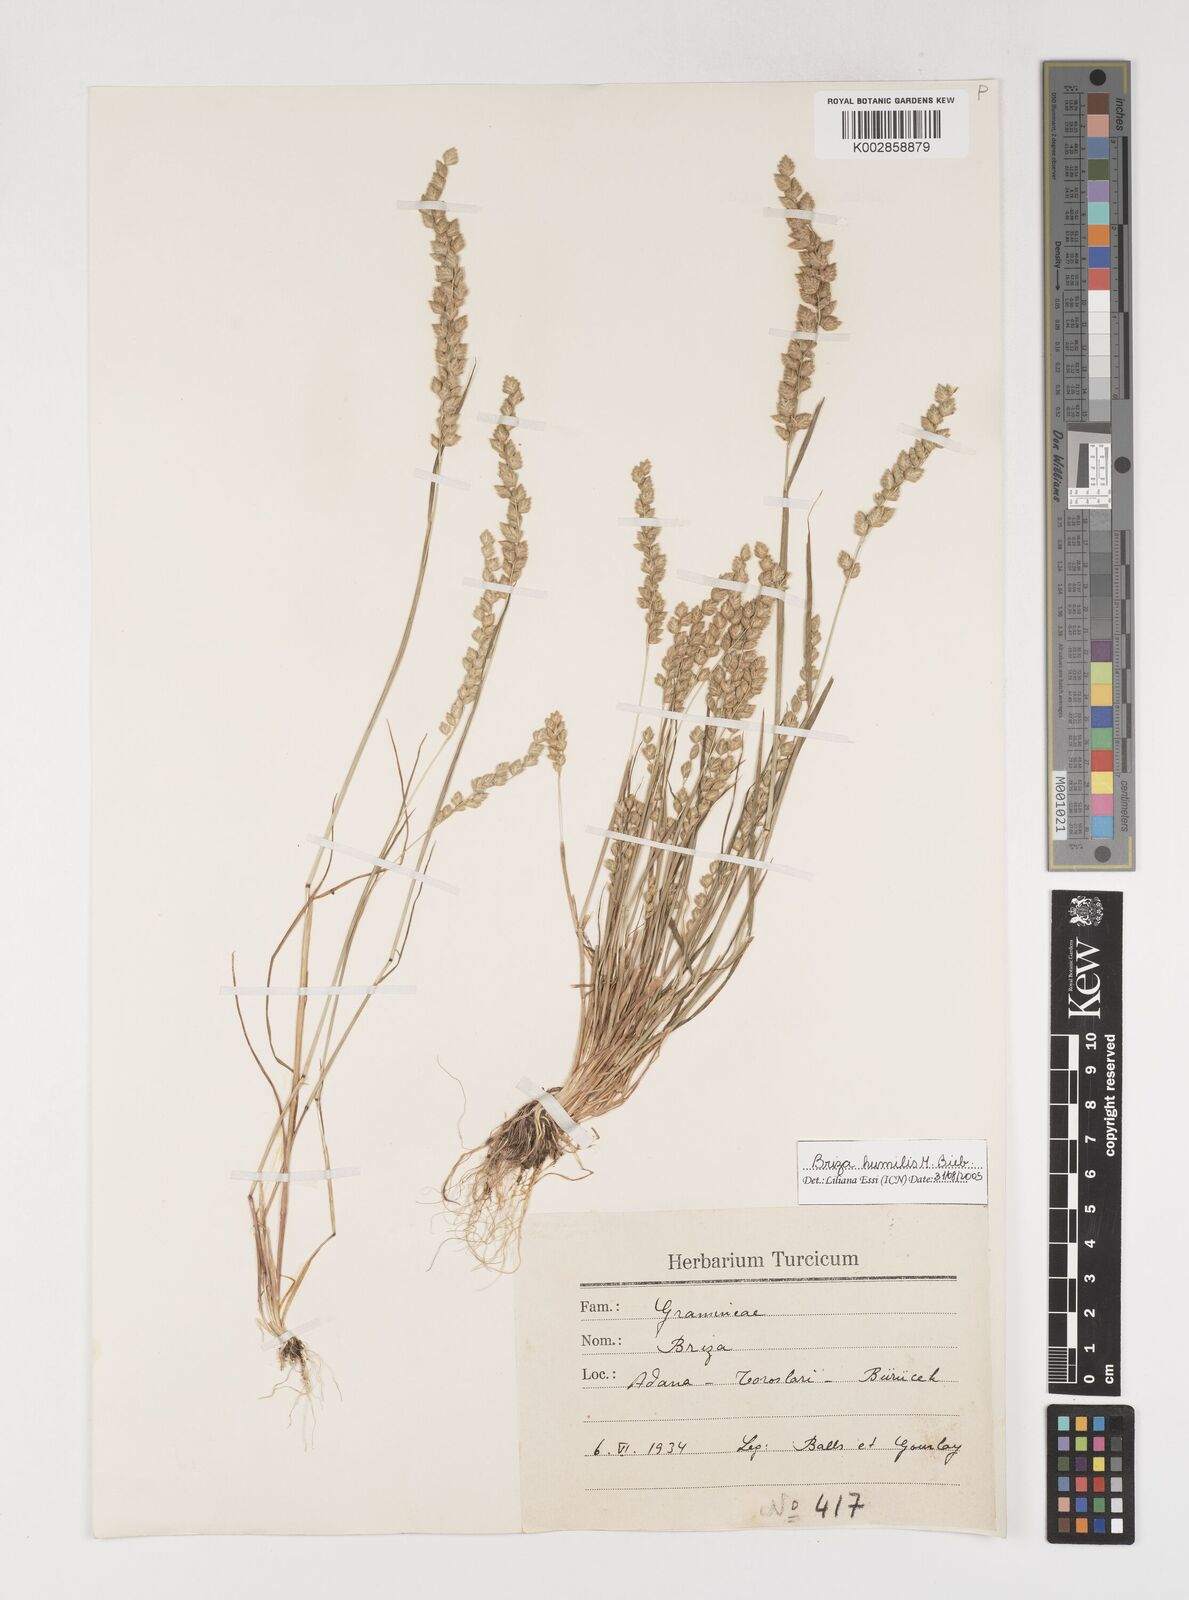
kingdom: Plantae
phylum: Tracheophyta
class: Liliopsida
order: Poales
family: Poaceae
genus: Briza
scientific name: Briza humilis
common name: Spiked quaking grass
